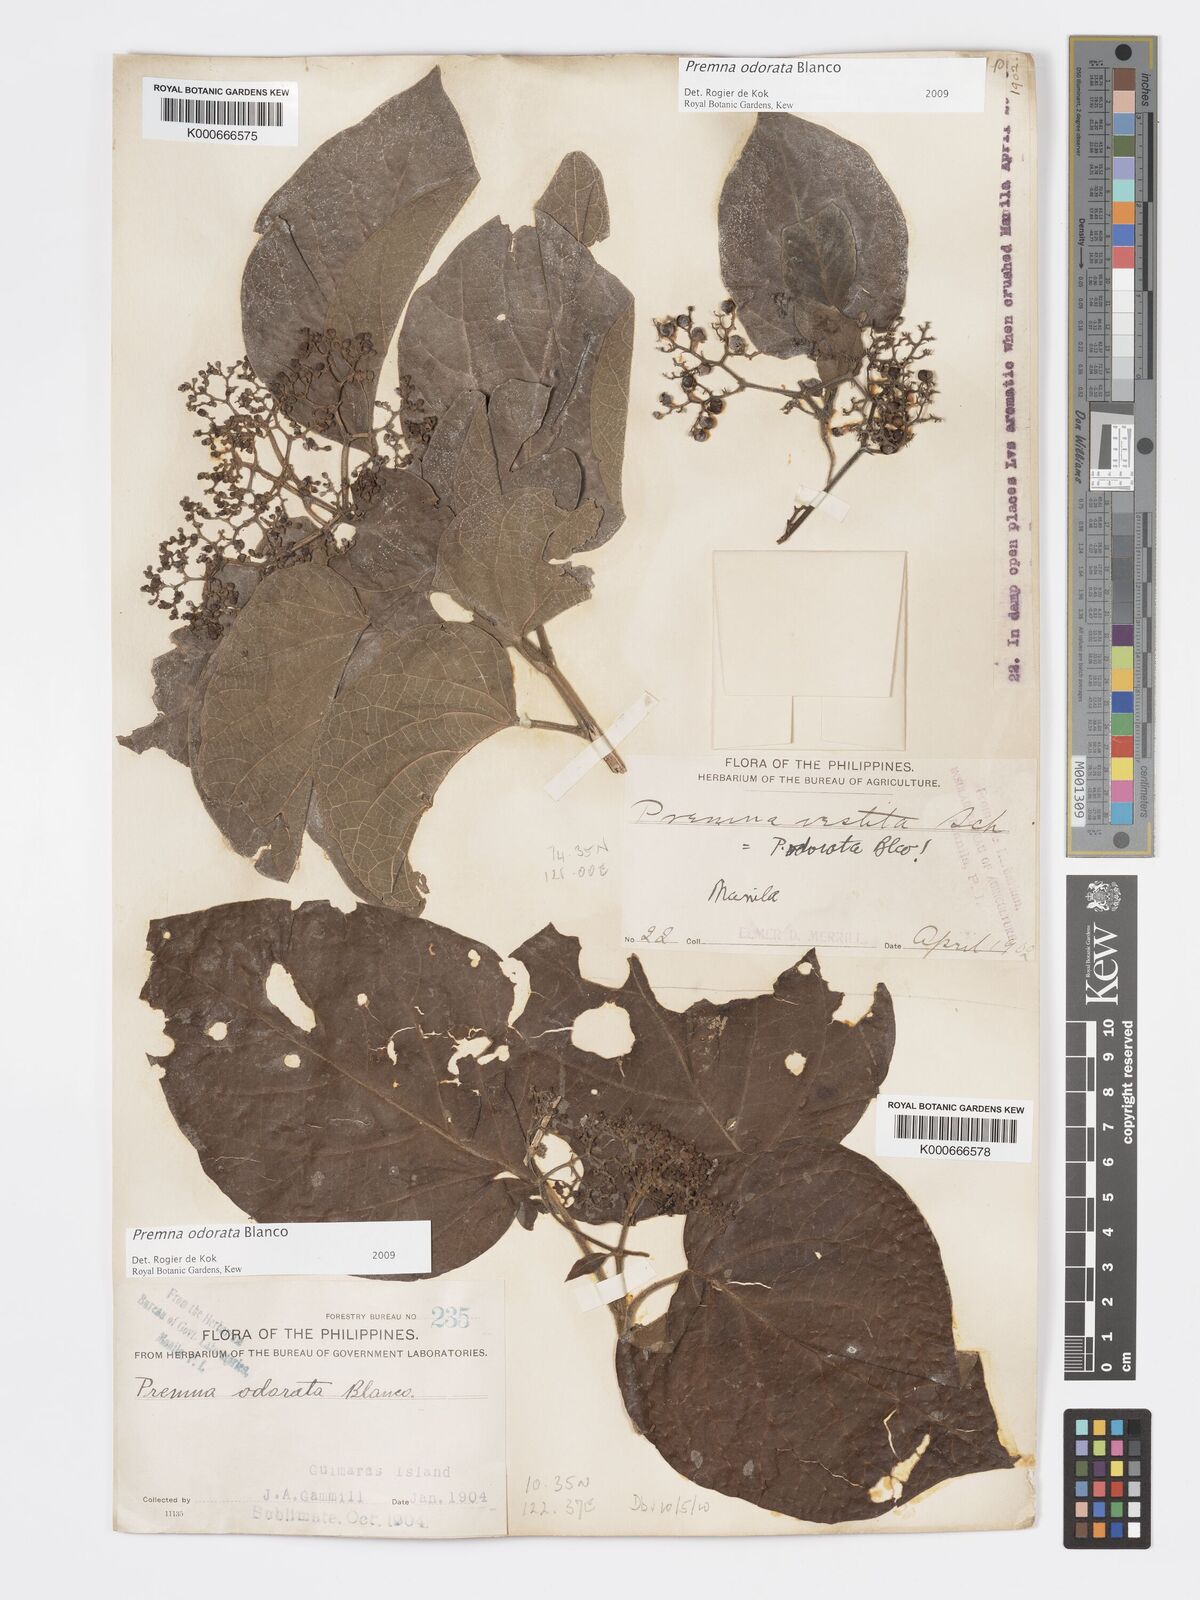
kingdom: Plantae
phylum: Tracheophyta
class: Magnoliopsida
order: Lamiales
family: Lamiaceae
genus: Premna
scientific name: Premna odorata
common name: Fragrant premna
